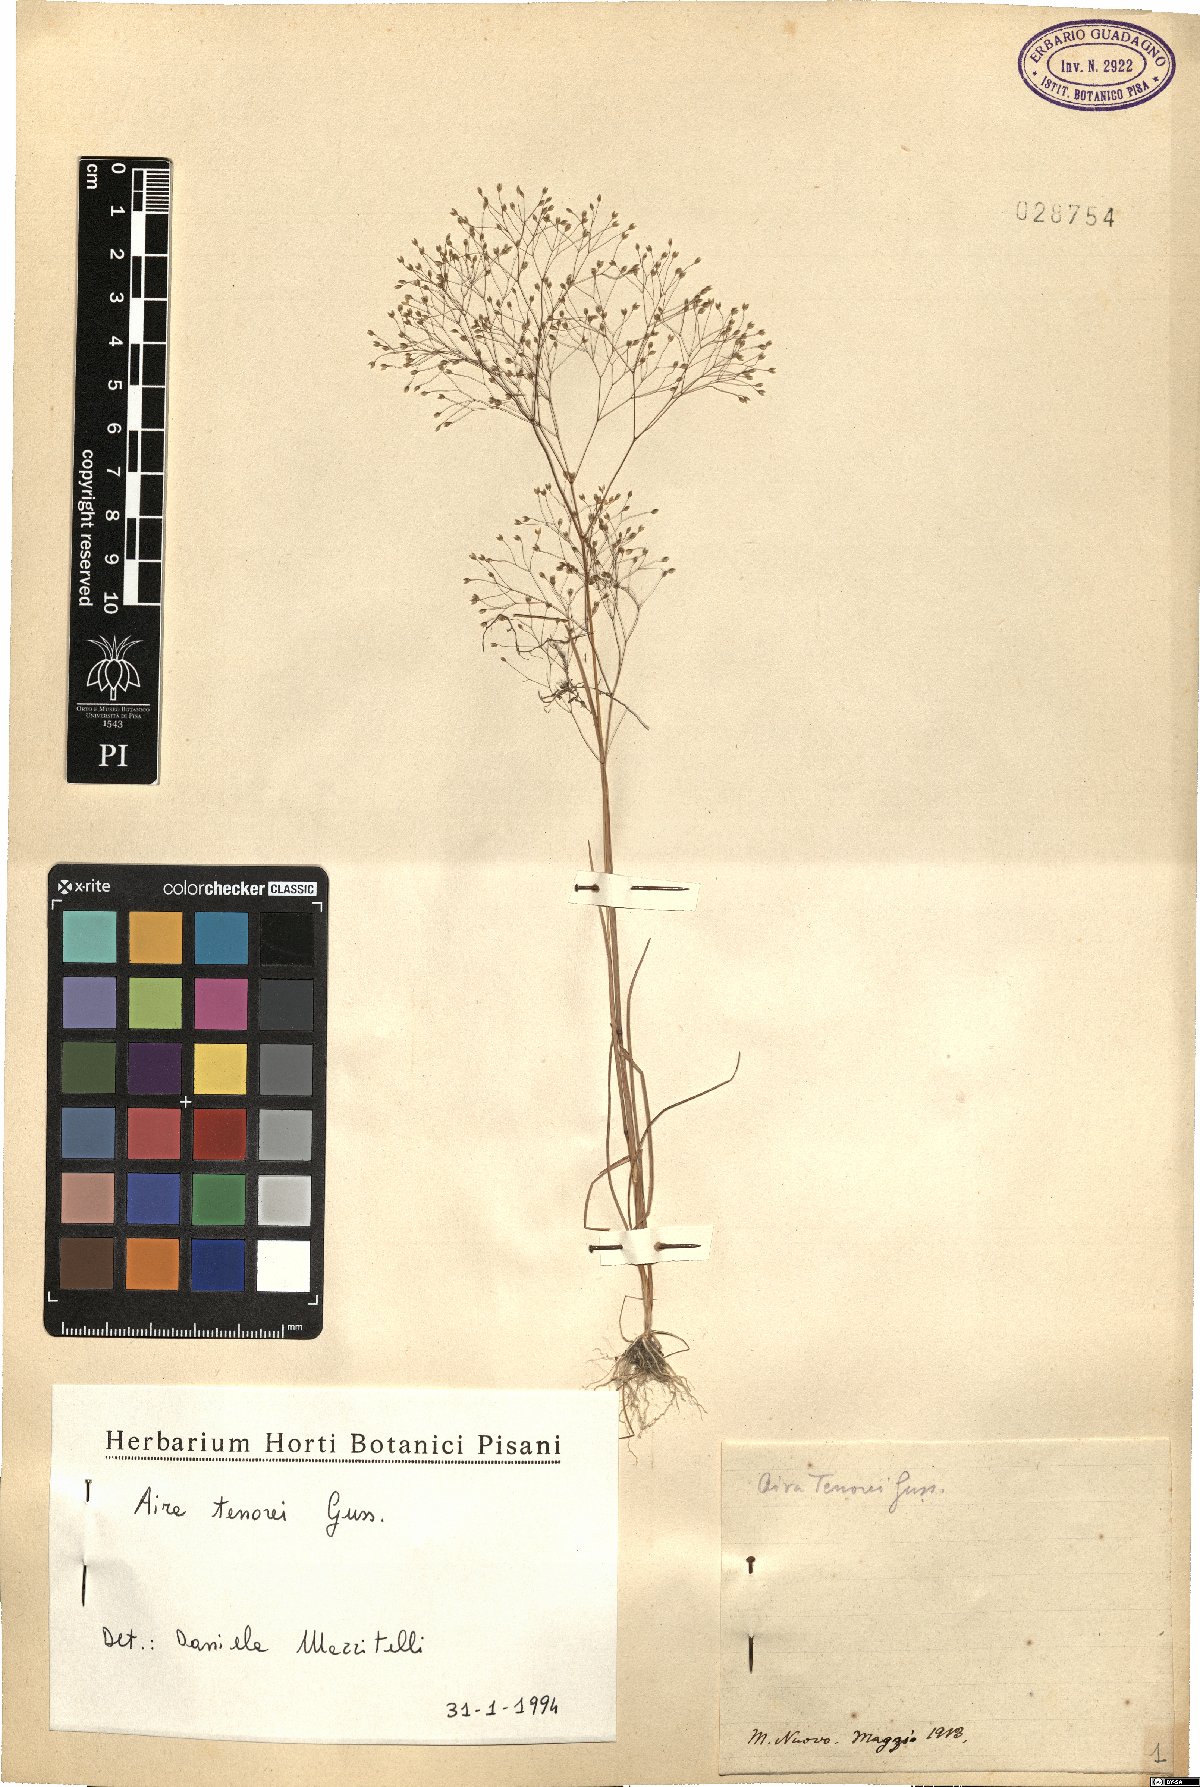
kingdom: Plantae
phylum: Tracheophyta
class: Liliopsida
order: Poales
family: Poaceae
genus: Aira
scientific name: Aira tenorei
